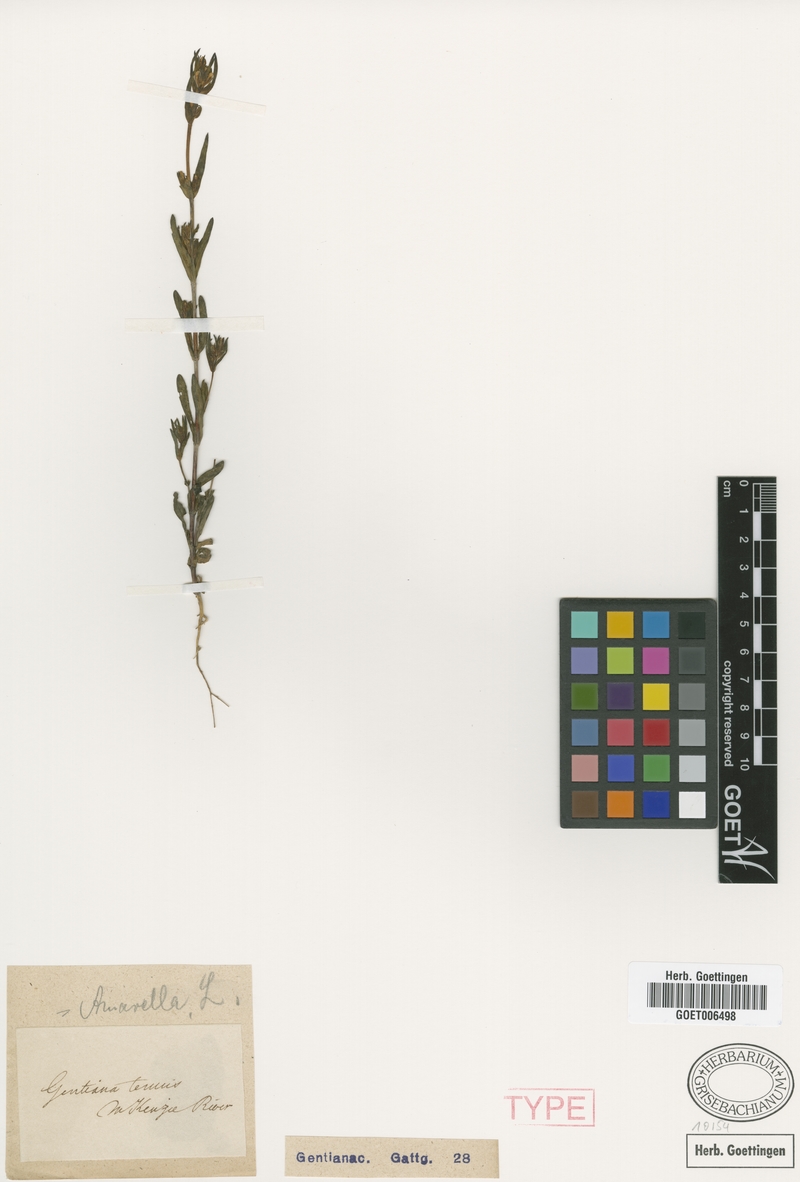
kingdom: Plantae
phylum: Tracheophyta
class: Magnoliopsida
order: Gentianales
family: Gentianaceae
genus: Gentianella
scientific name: Gentianella amarella
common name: Autumn gentian
